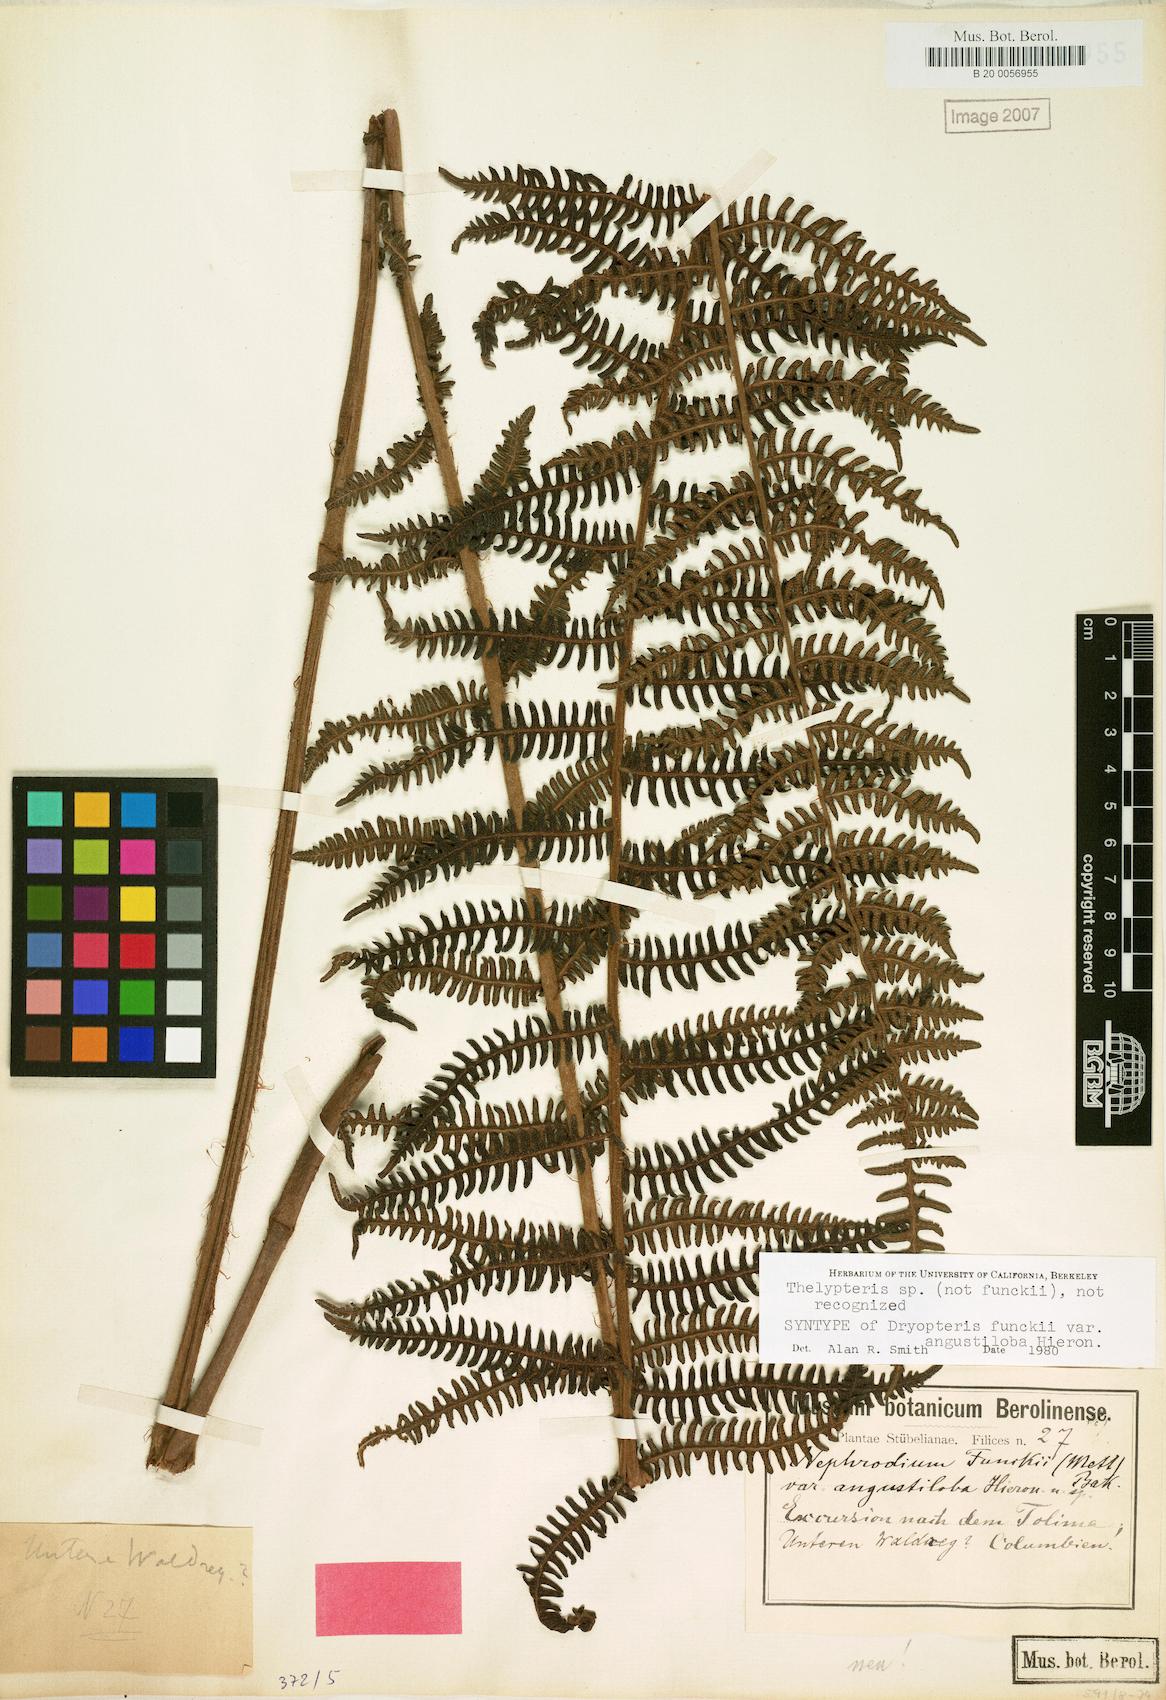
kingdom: Plantae
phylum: Tracheophyta
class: Polypodiopsida
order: Polypodiales
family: Thelypteridaceae
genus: Amauropelta
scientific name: Amauropelta corazonensis
